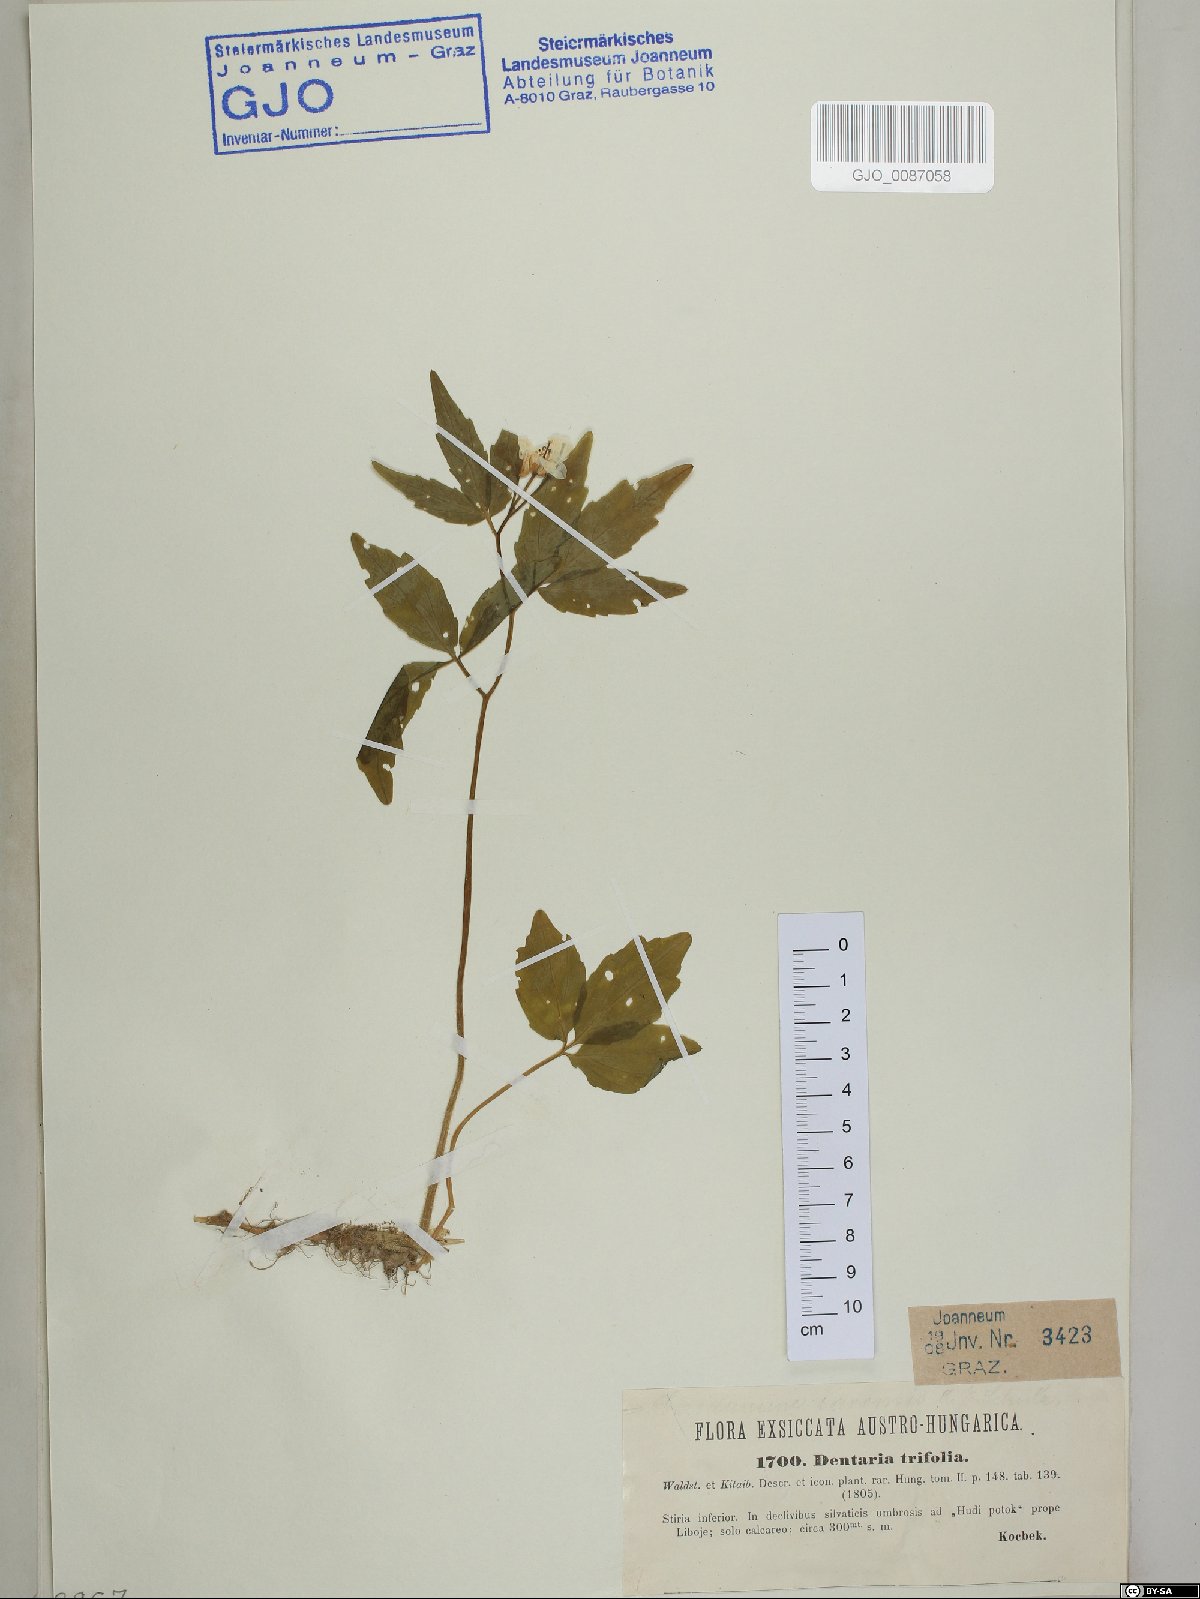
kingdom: Plantae
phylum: Tracheophyta
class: Magnoliopsida
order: Brassicales
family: Brassicaceae
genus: Cardamine
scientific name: Cardamine waldsteinii
